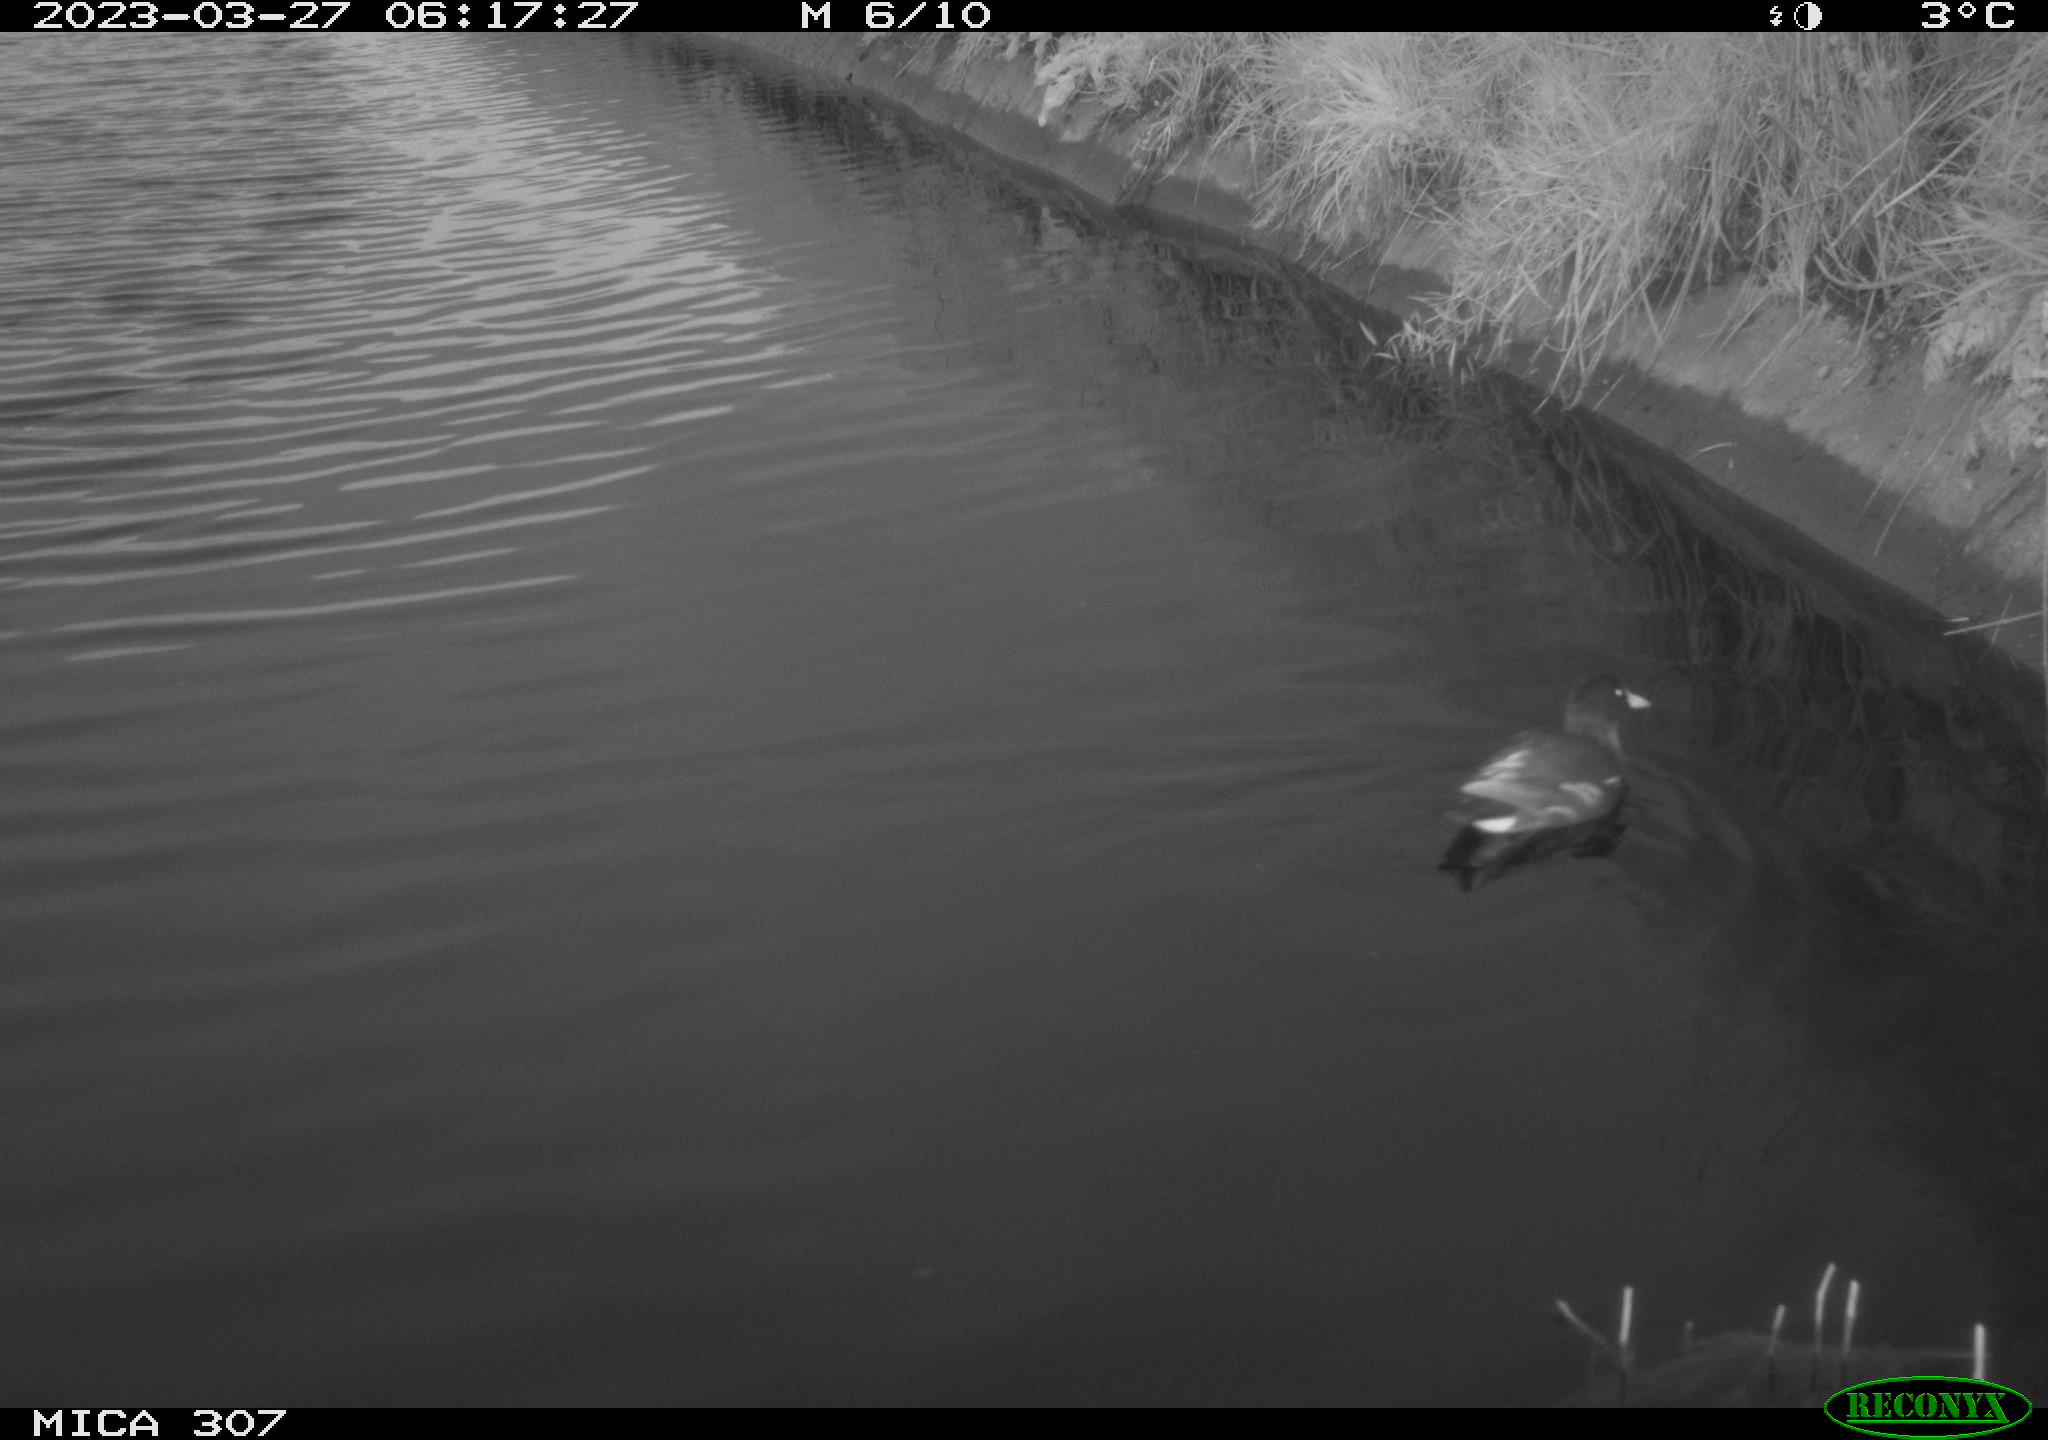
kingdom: Animalia
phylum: Chordata
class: Aves
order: Gruiformes
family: Rallidae
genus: Gallinula
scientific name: Gallinula chloropus
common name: Common moorhen
